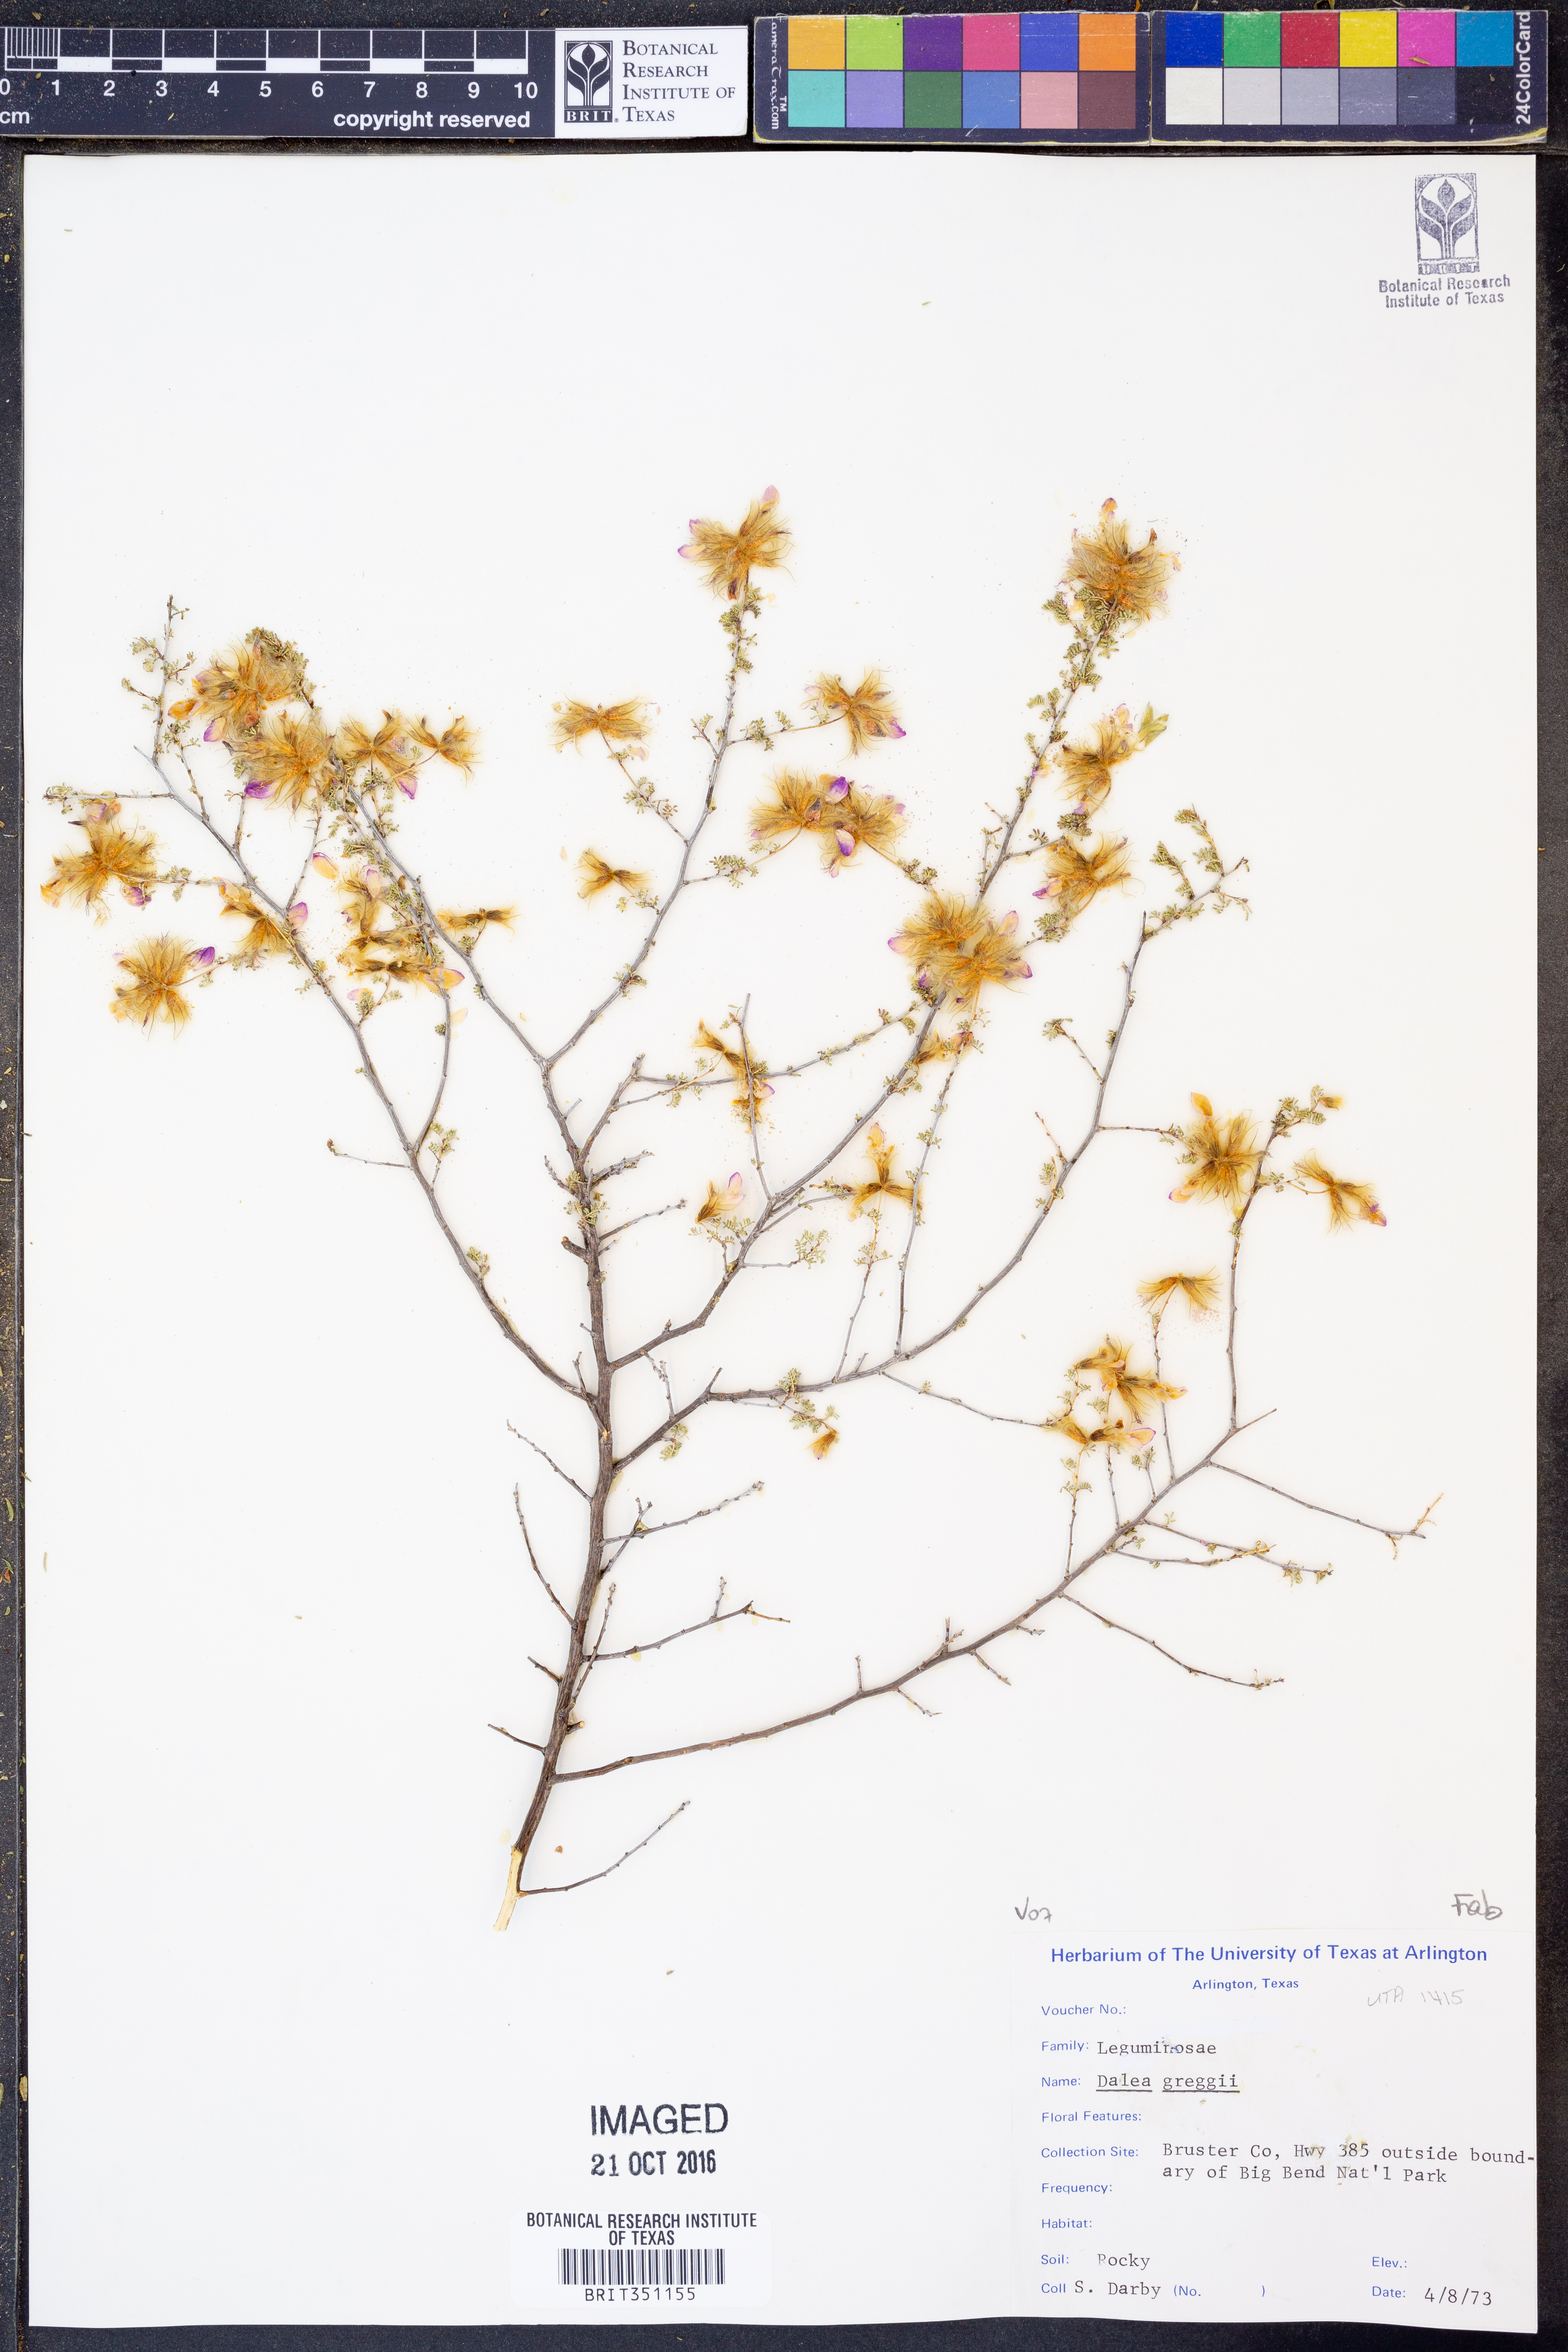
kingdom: Plantae
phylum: Tracheophyta
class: Magnoliopsida
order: Fabales
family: Fabaceae
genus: Dalea
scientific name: Dalea greggii
